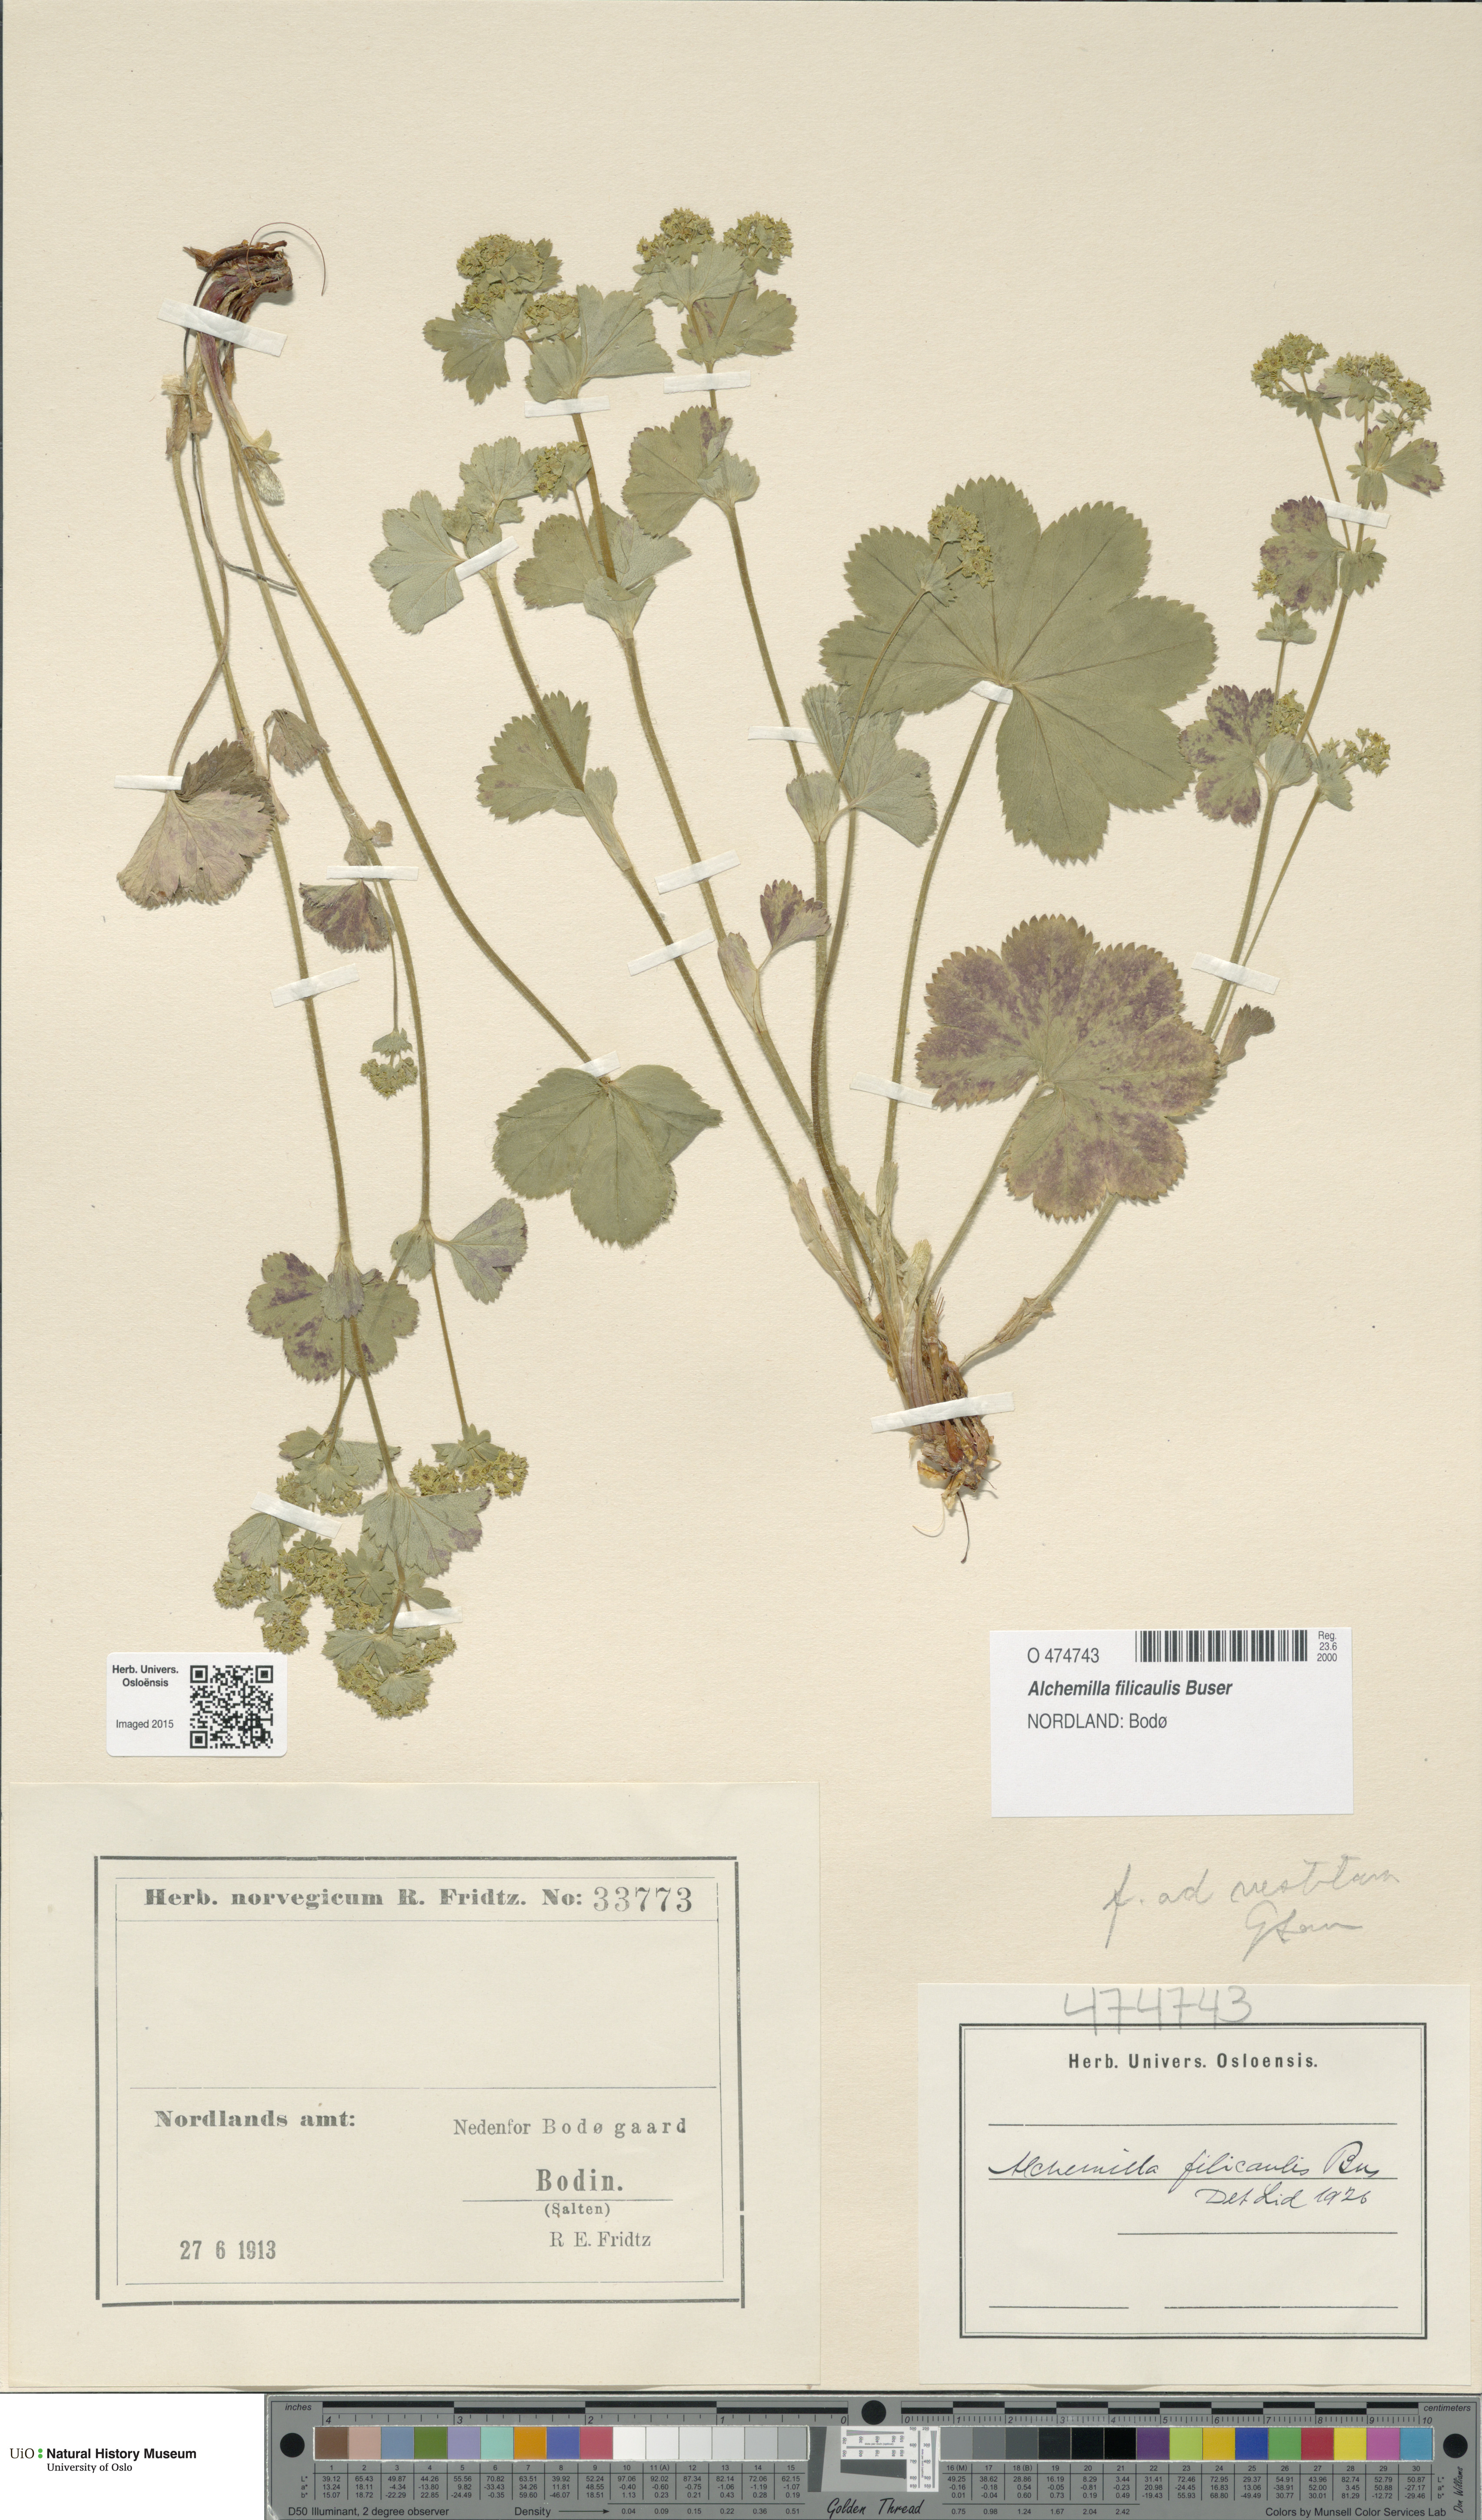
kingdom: Plantae
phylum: Tracheophyta
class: Magnoliopsida
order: Rosales
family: Rosaceae
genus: Alchemilla
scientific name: Alchemilla filicaulis
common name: Hairy lady's-mantle
